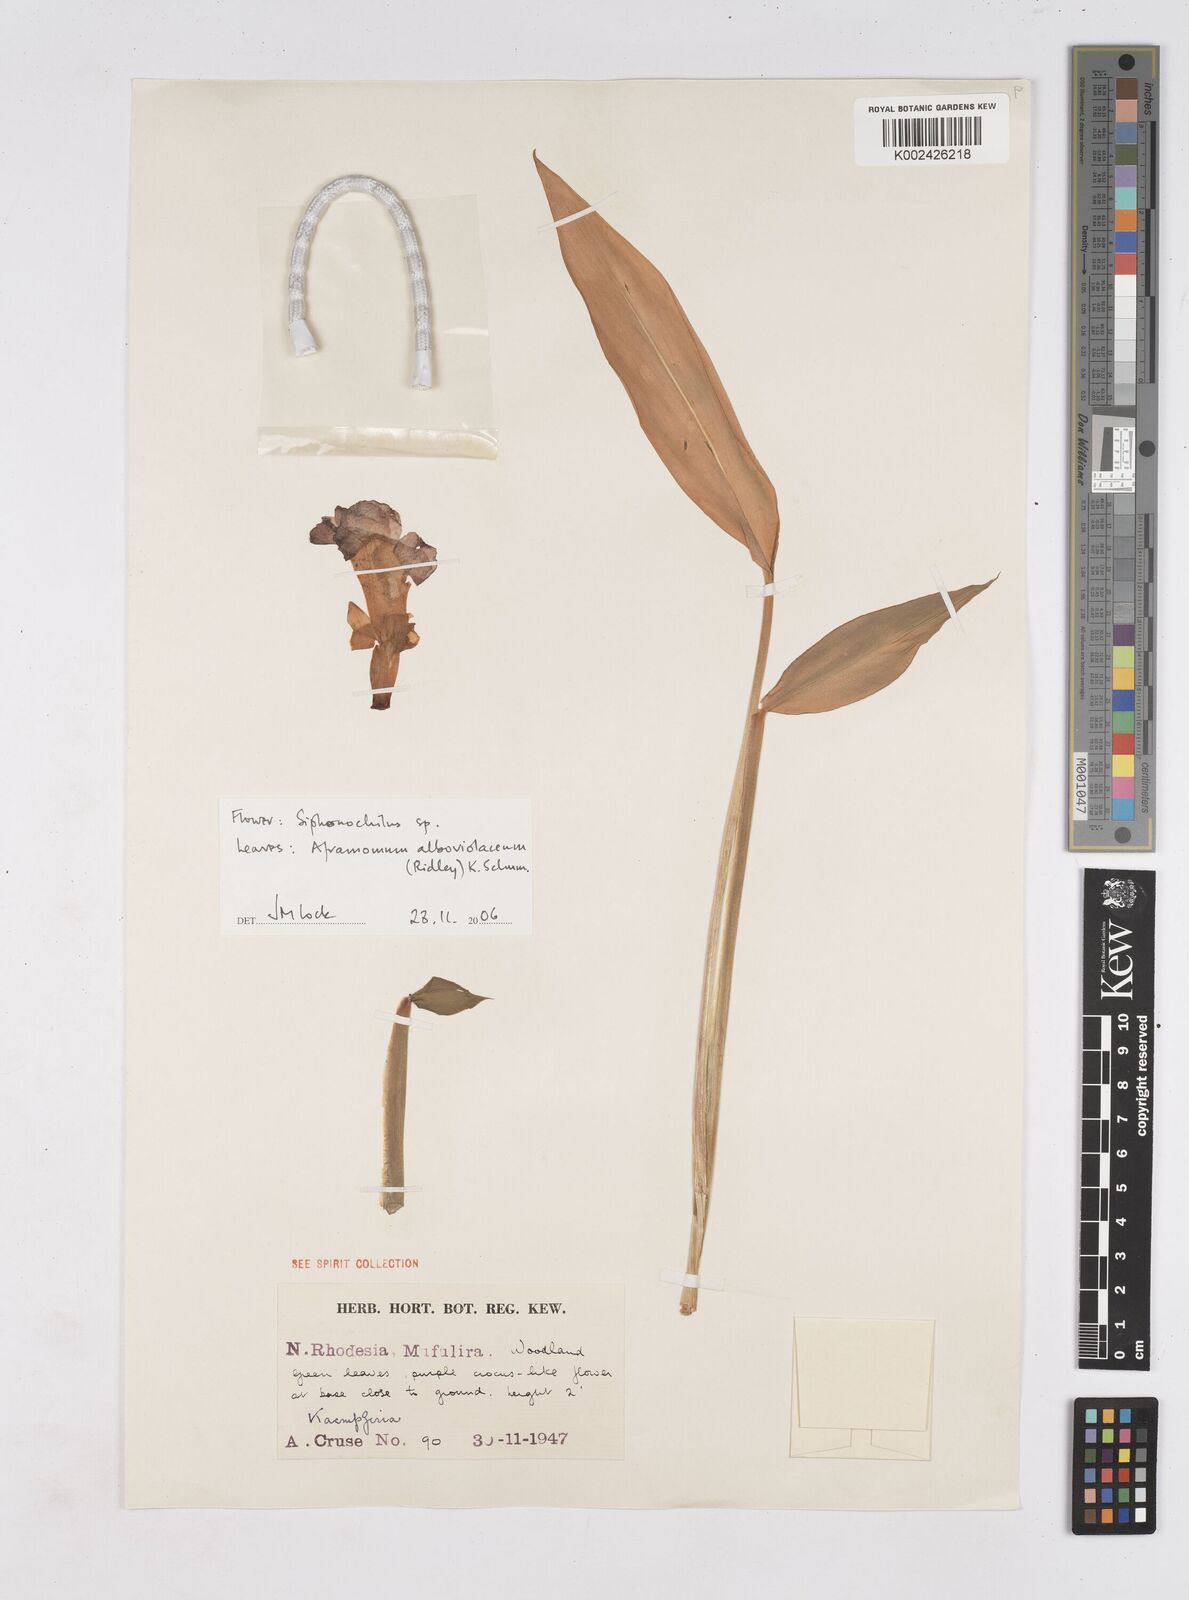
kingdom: Plantae
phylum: Tracheophyta
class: Liliopsida
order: Zingiberales
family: Zingiberaceae
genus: Siphonochilus
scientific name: Siphonochilus
